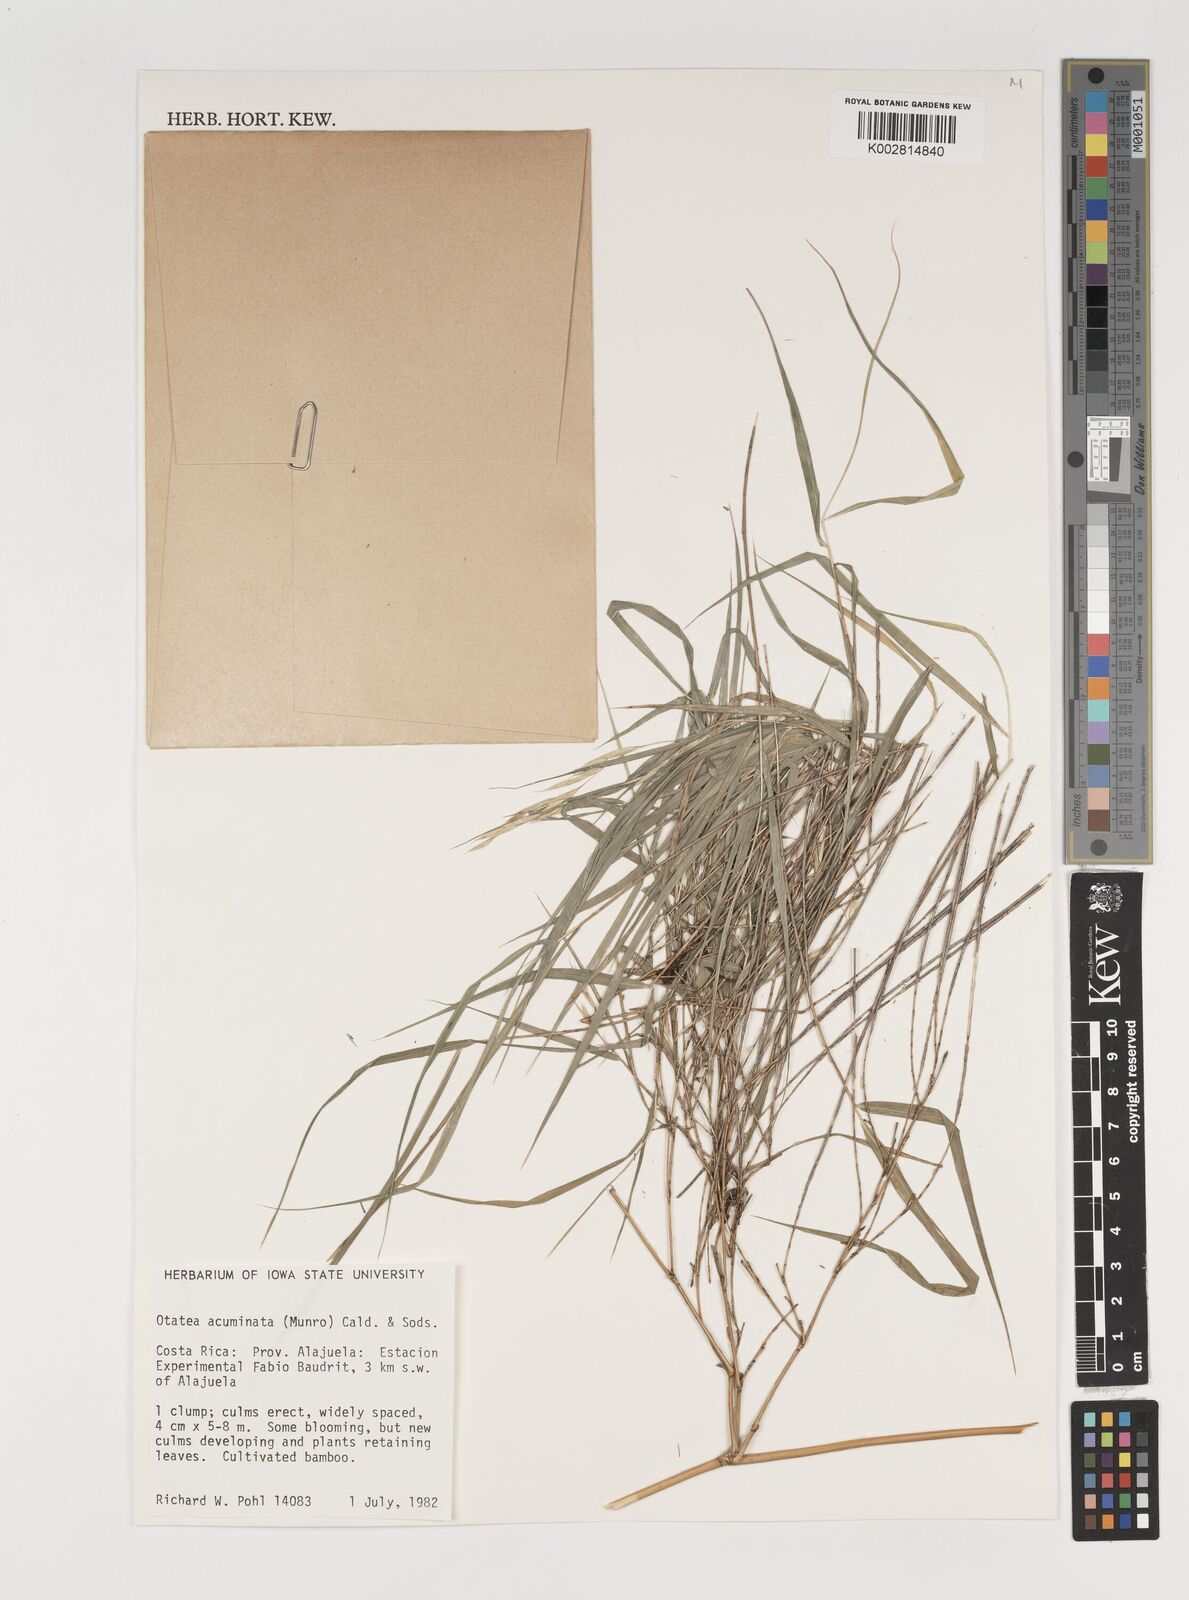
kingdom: Plantae
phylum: Tracheophyta
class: Liliopsida
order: Poales
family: Poaceae
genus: Olmeca
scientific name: Olmeca
